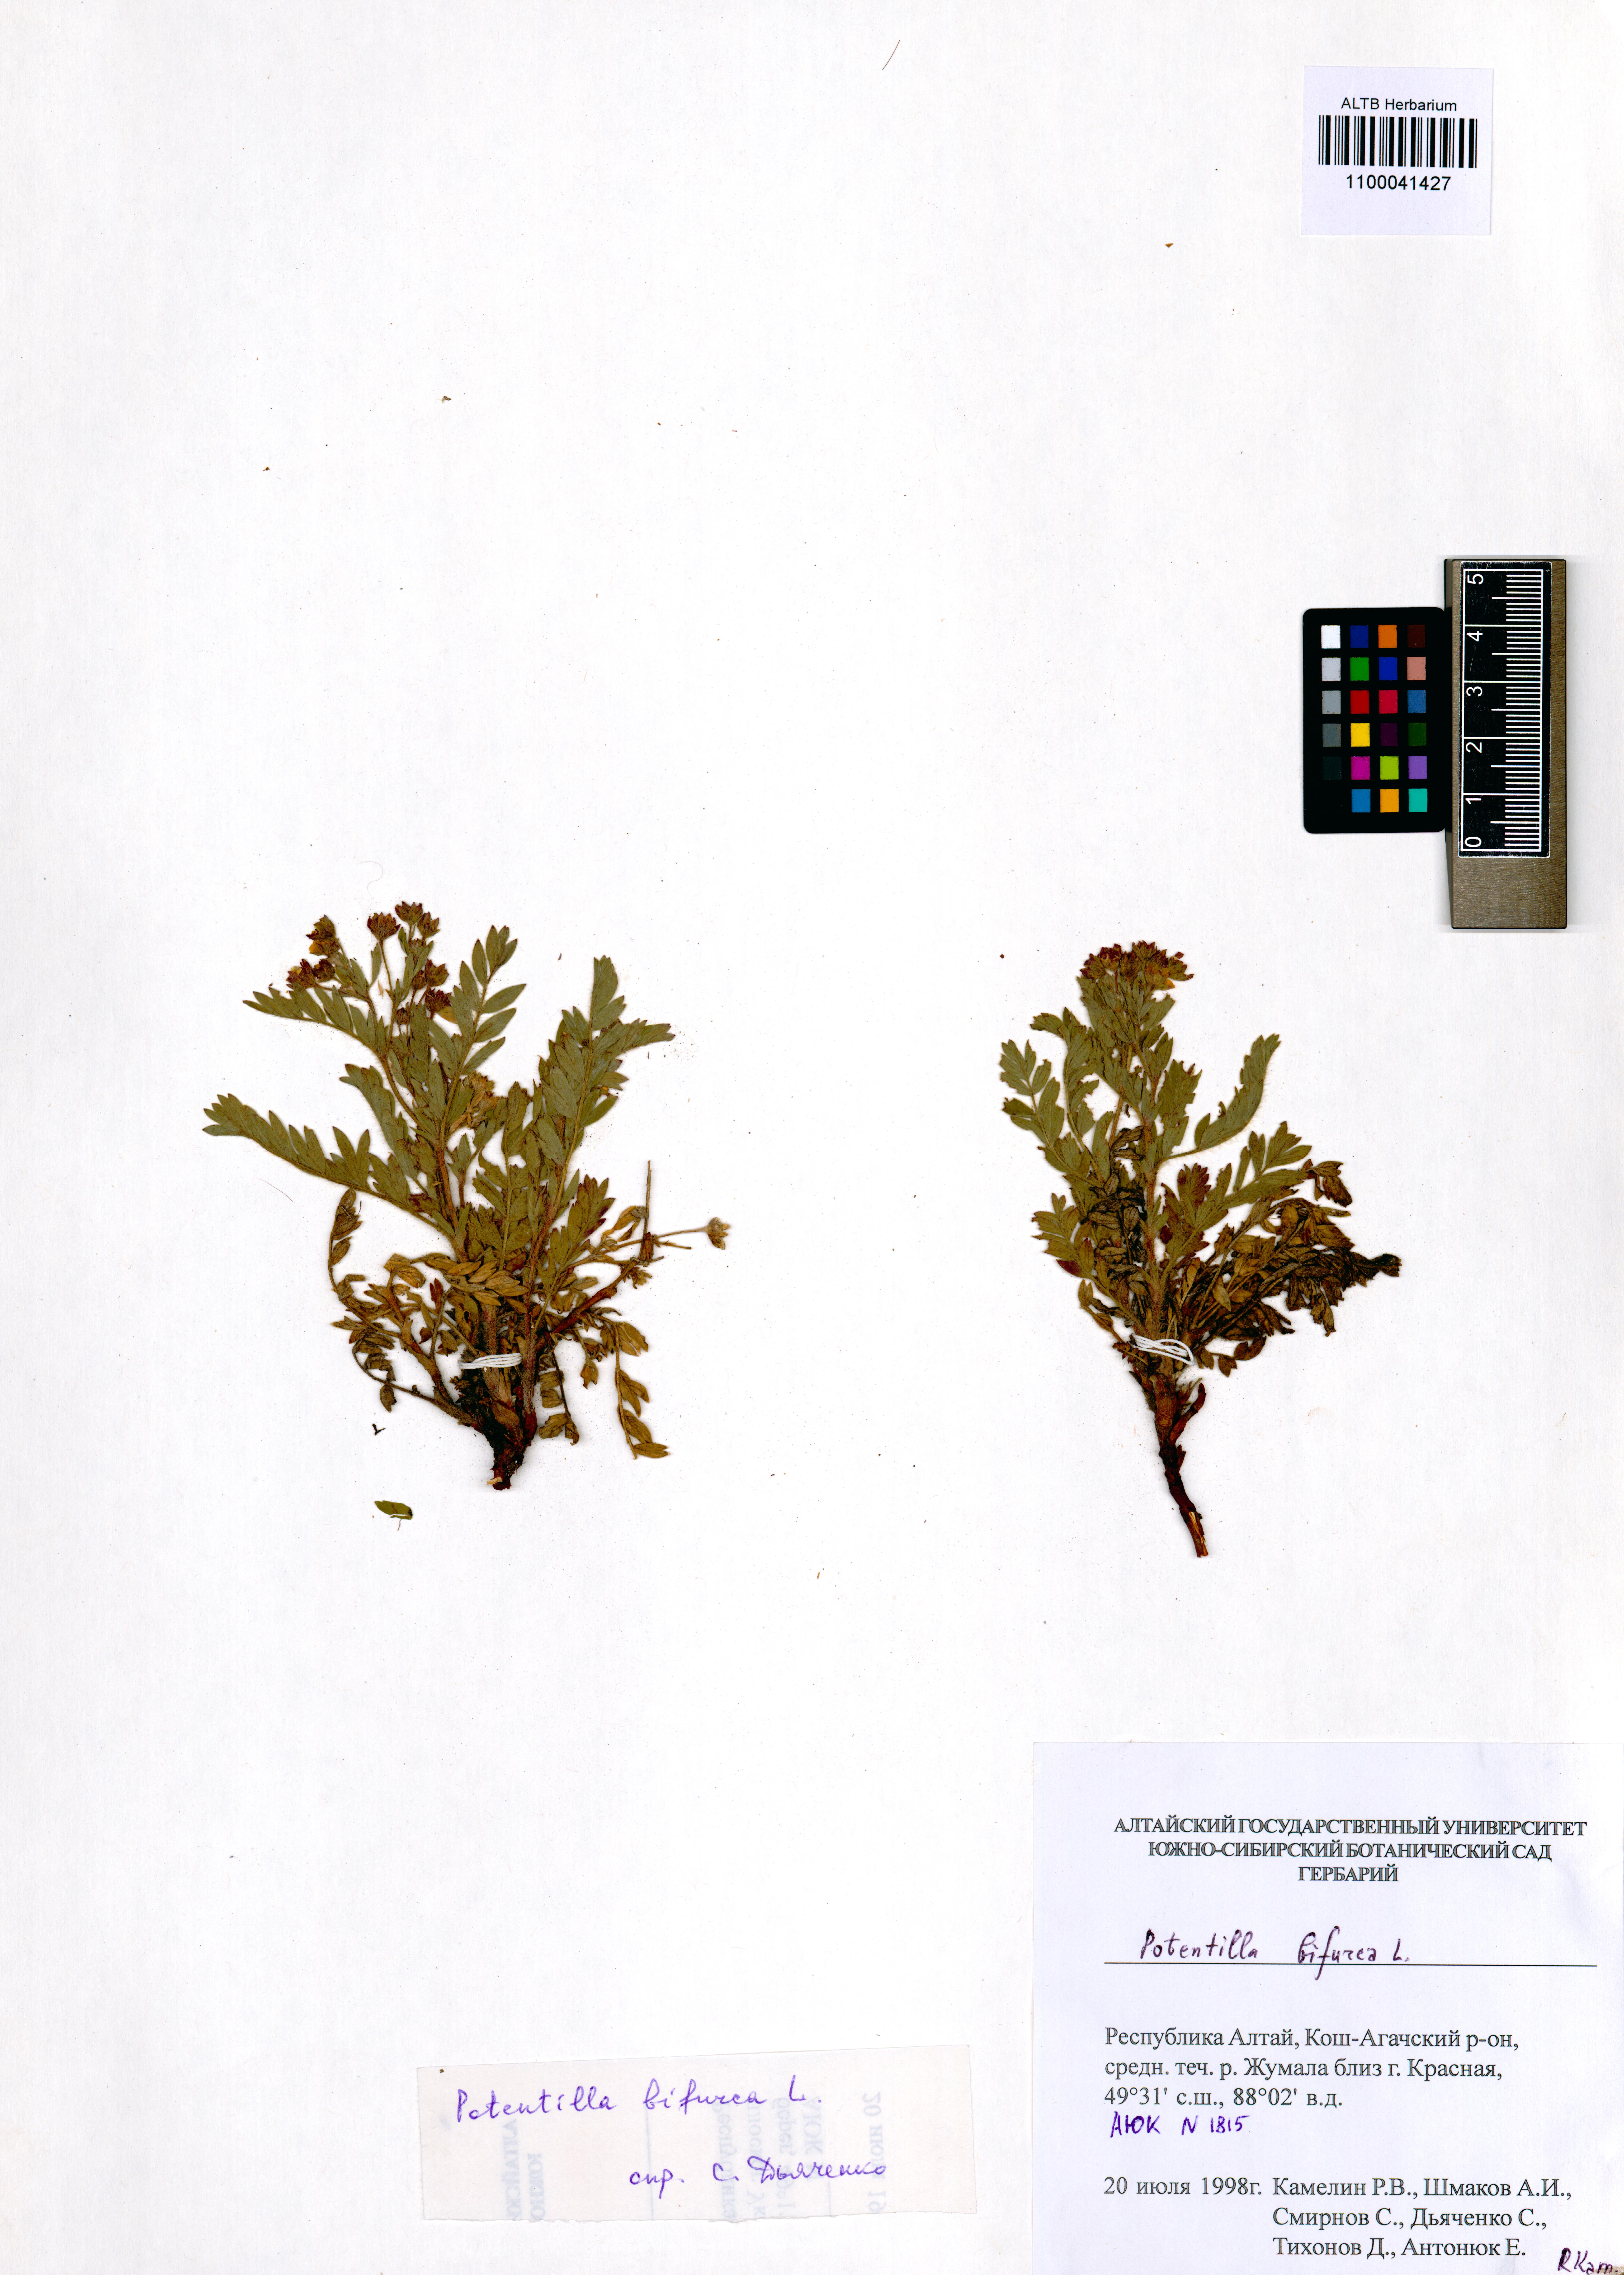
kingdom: Plantae
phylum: Tracheophyta
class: Magnoliopsida
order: Rosales
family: Rosaceae
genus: Sibbaldianthe
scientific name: Sibbaldianthe bifurca
